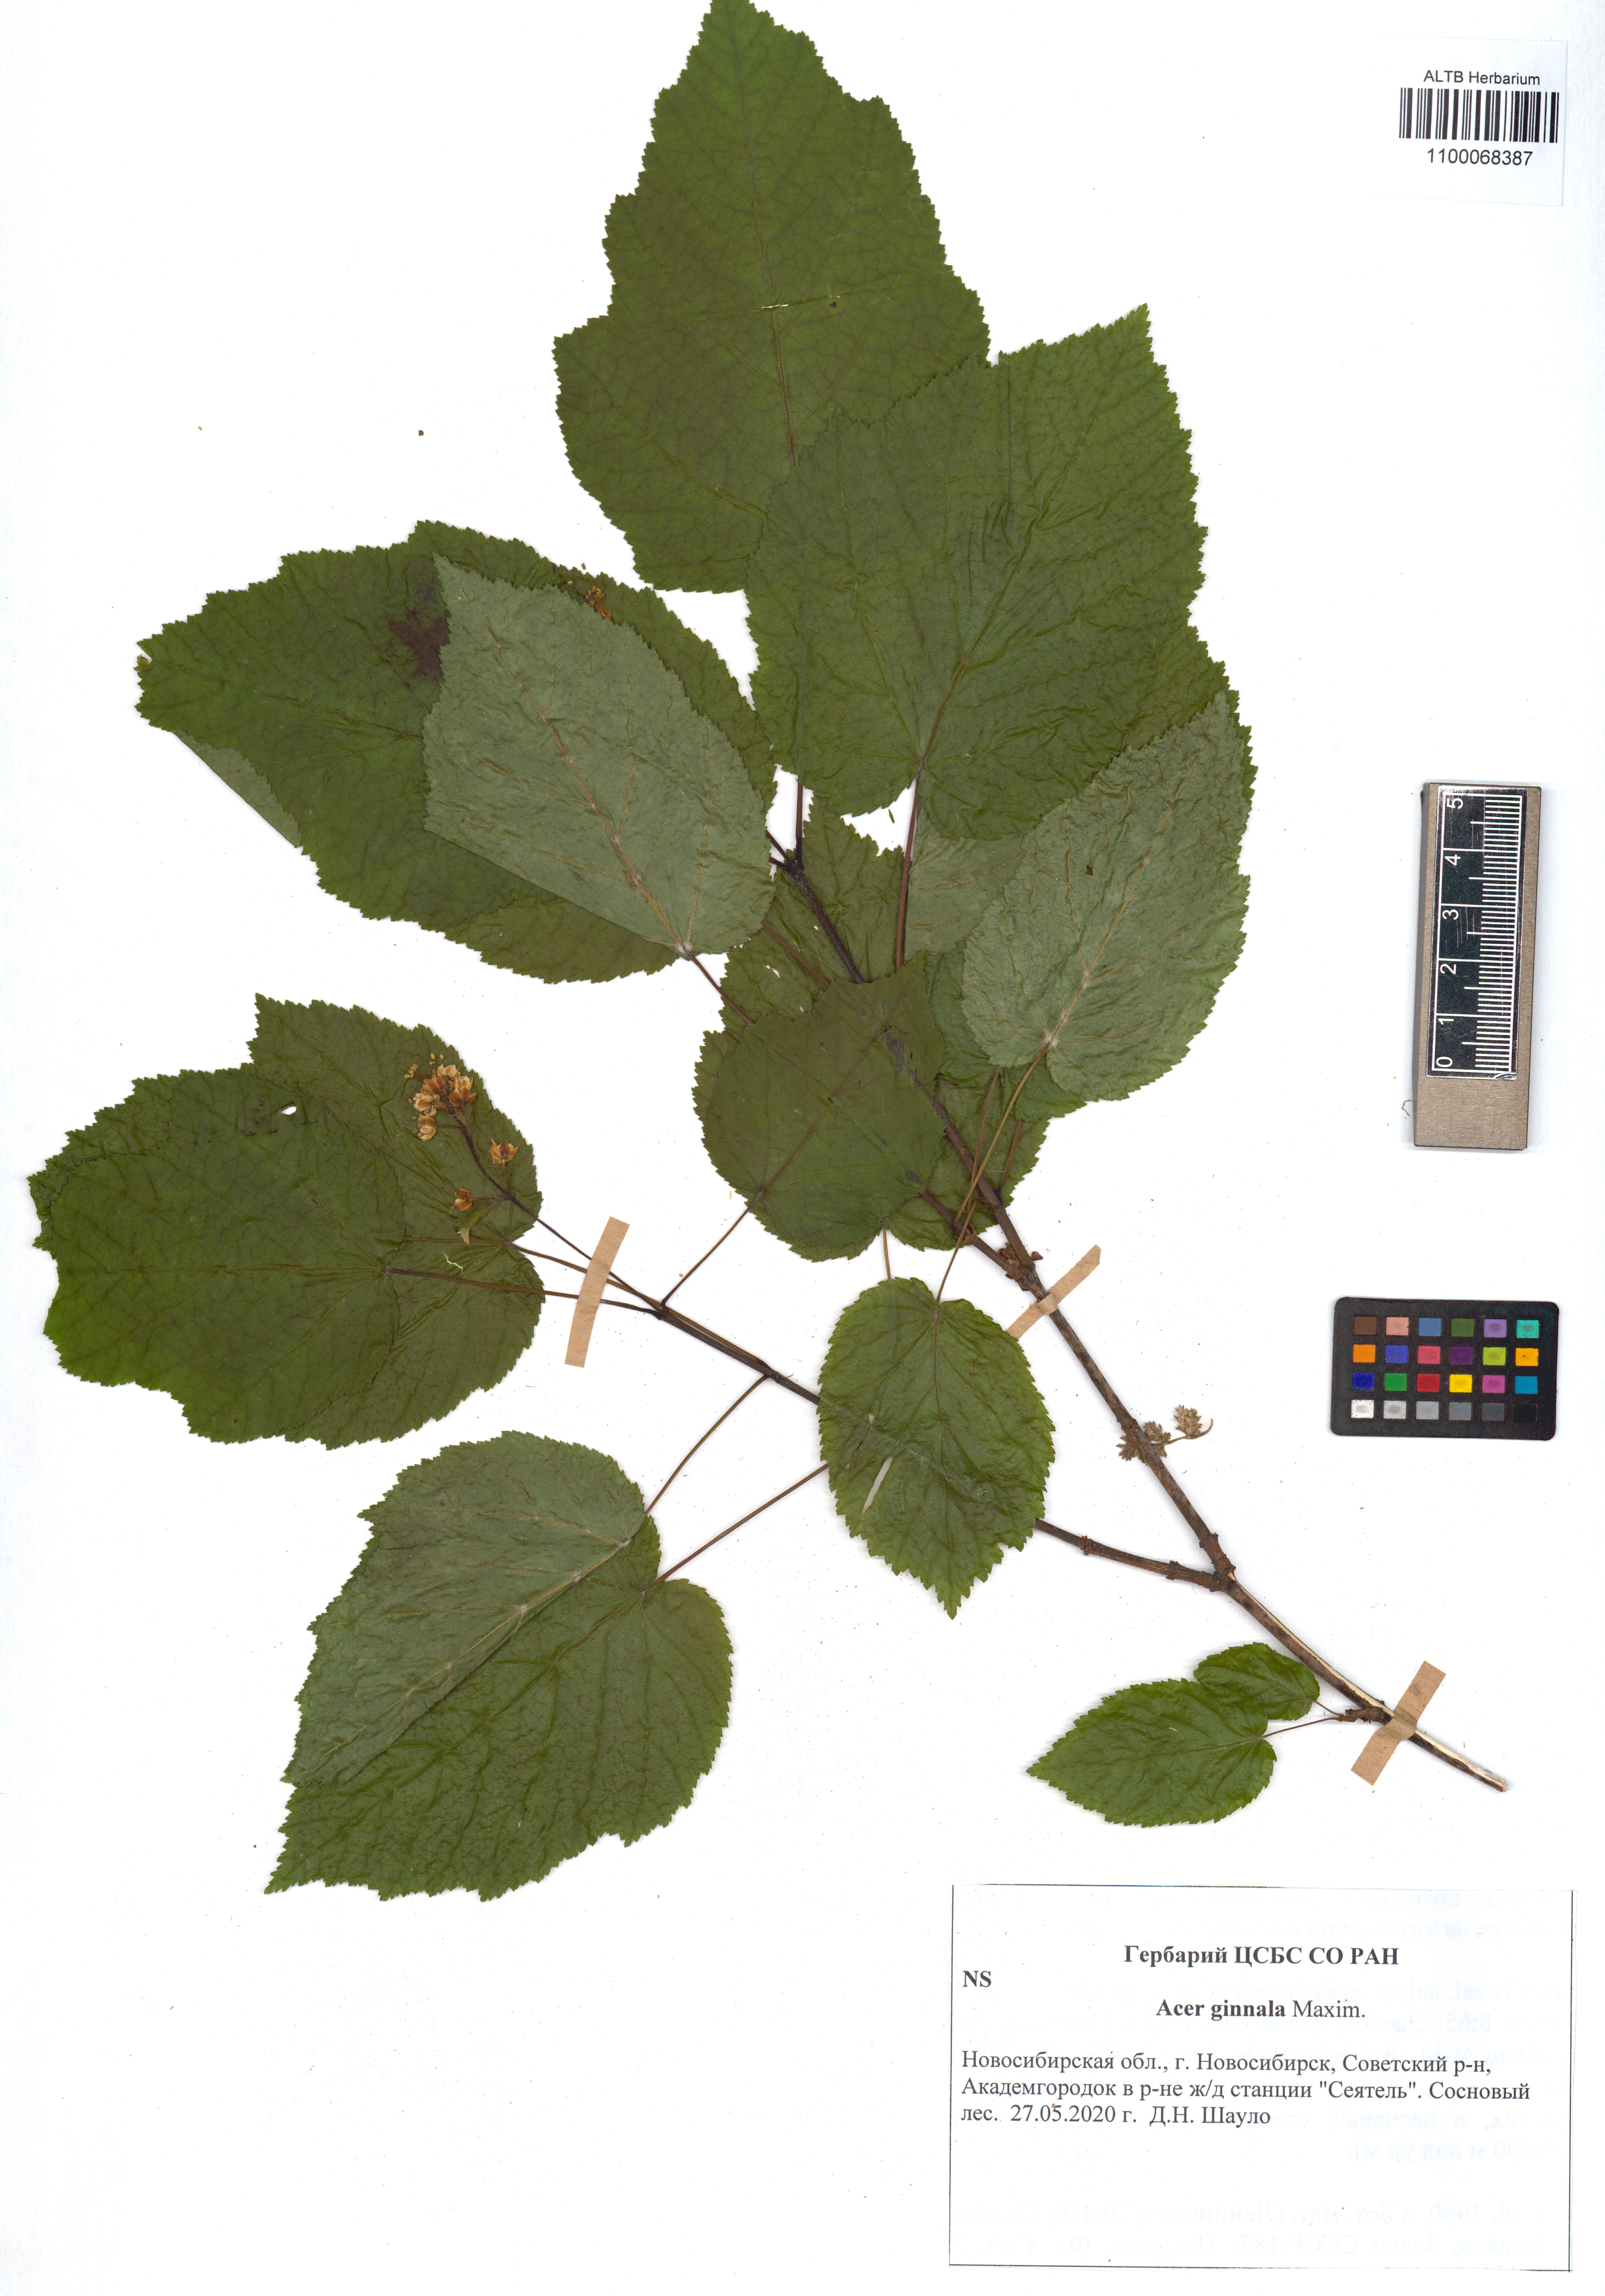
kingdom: Plantae
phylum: Tracheophyta
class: Magnoliopsida
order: Sapindales
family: Sapindaceae
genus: Acer
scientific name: Acer tataricum
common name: Tartar maple
